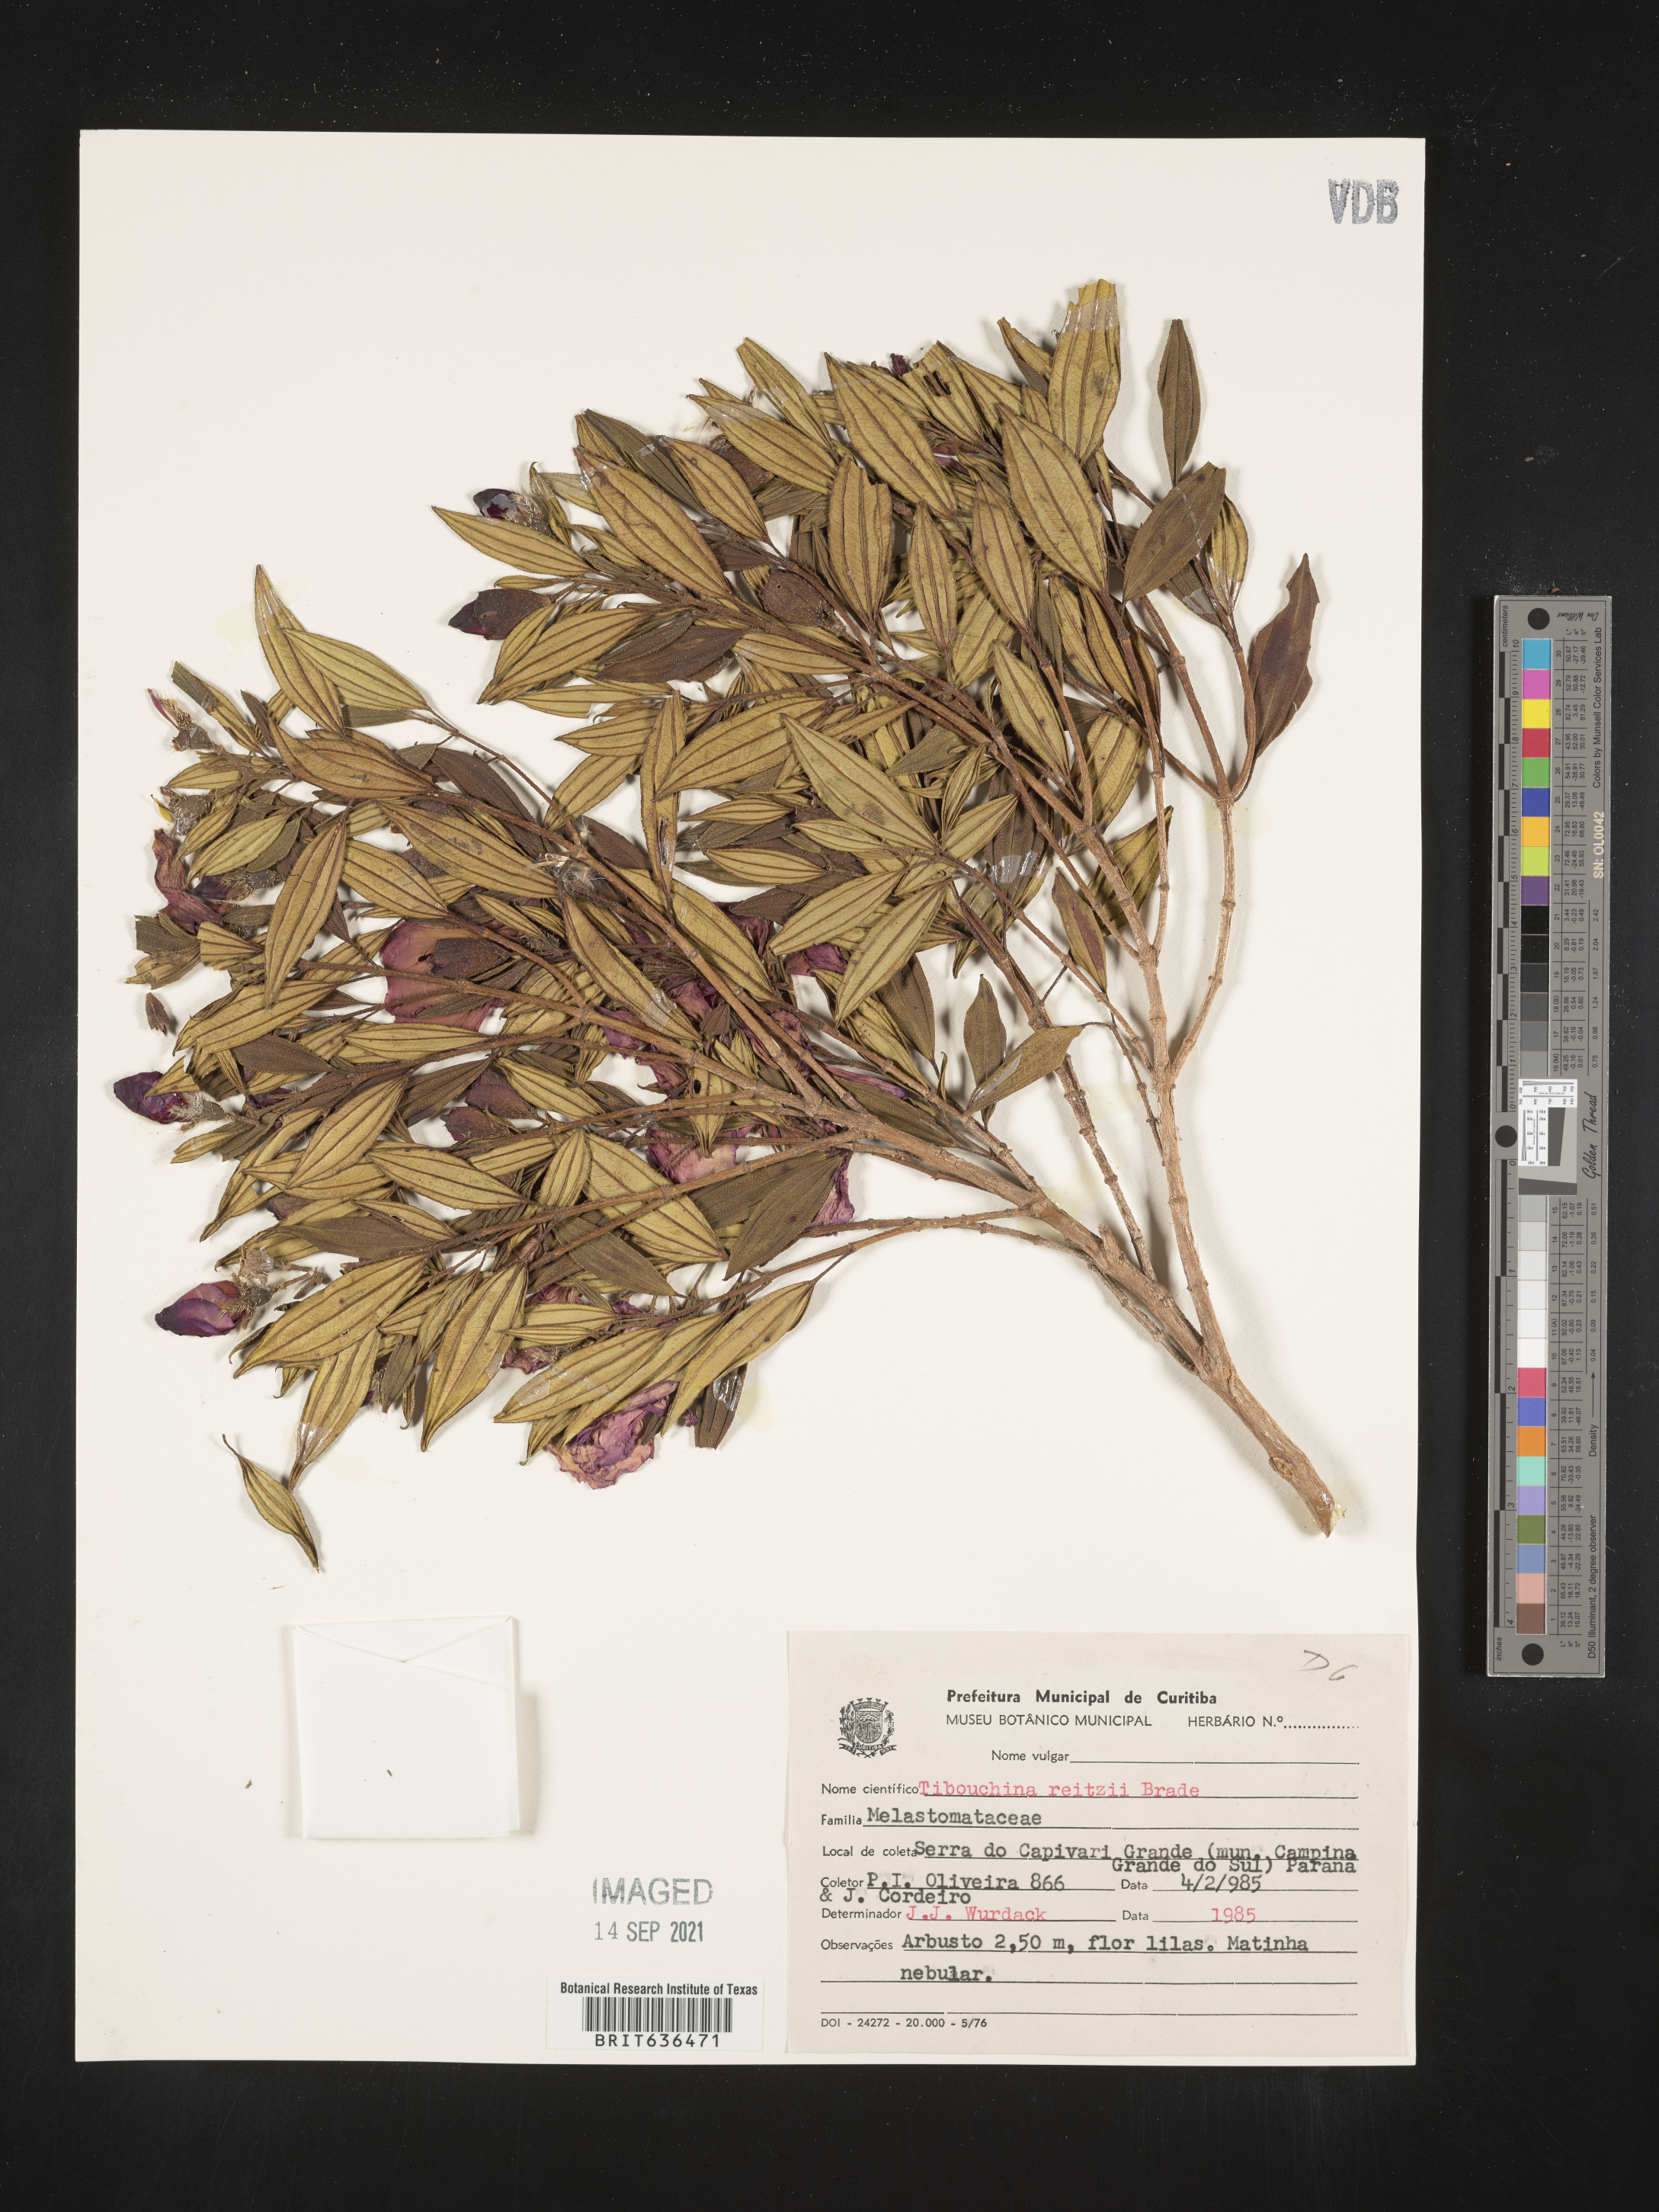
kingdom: Plantae
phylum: Tracheophyta
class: Magnoliopsida
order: Myrtales
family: Melastomataceae
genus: Tibouchina
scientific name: Tibouchina
